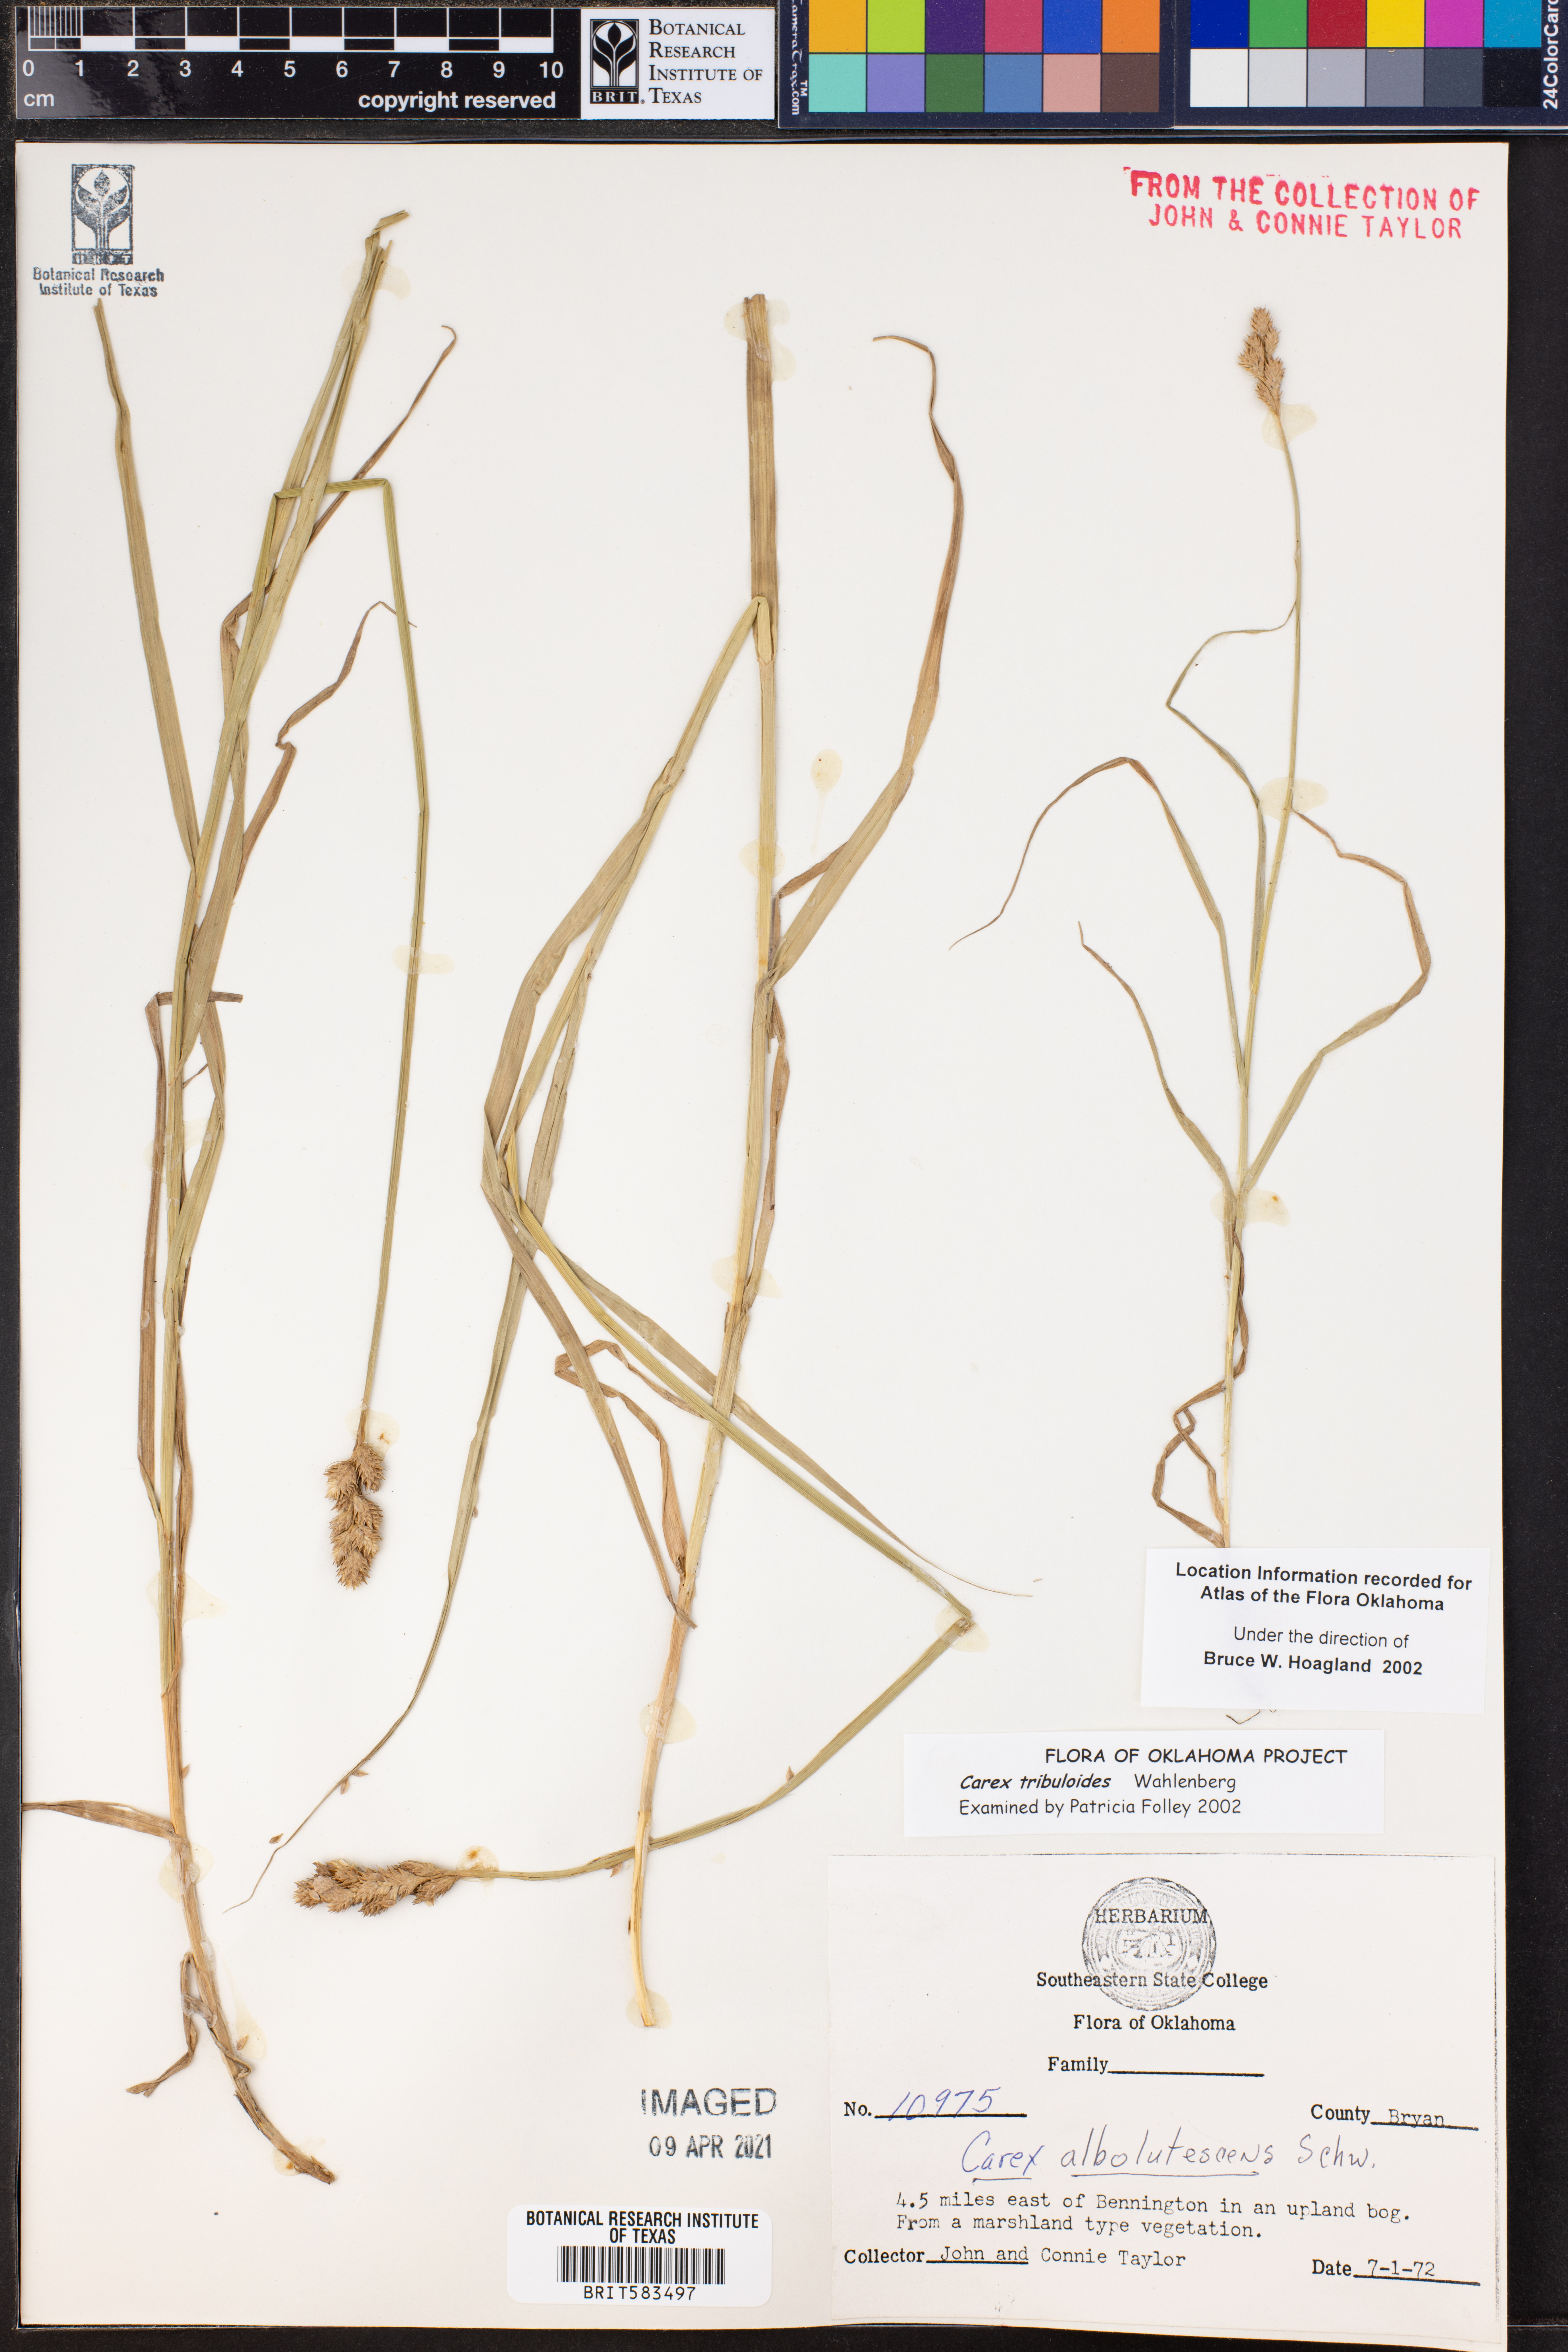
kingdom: Plantae
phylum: Tracheophyta
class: Liliopsida
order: Poales
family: Cyperaceae
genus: Carex
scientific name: Carex tribuloides
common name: Blunt broom sedge
